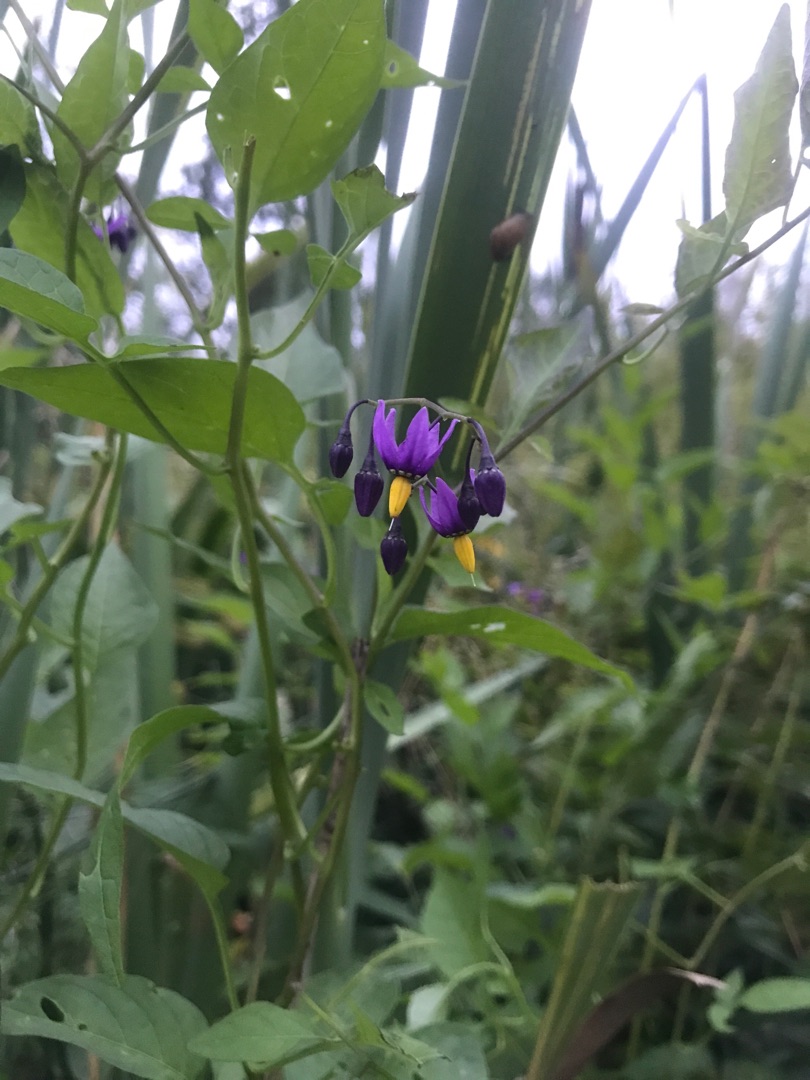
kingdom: Plantae
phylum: Tracheophyta
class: Magnoliopsida
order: Solanales
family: Solanaceae
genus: Solanum
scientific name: Solanum dulcamara
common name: Bittersød natskygge
